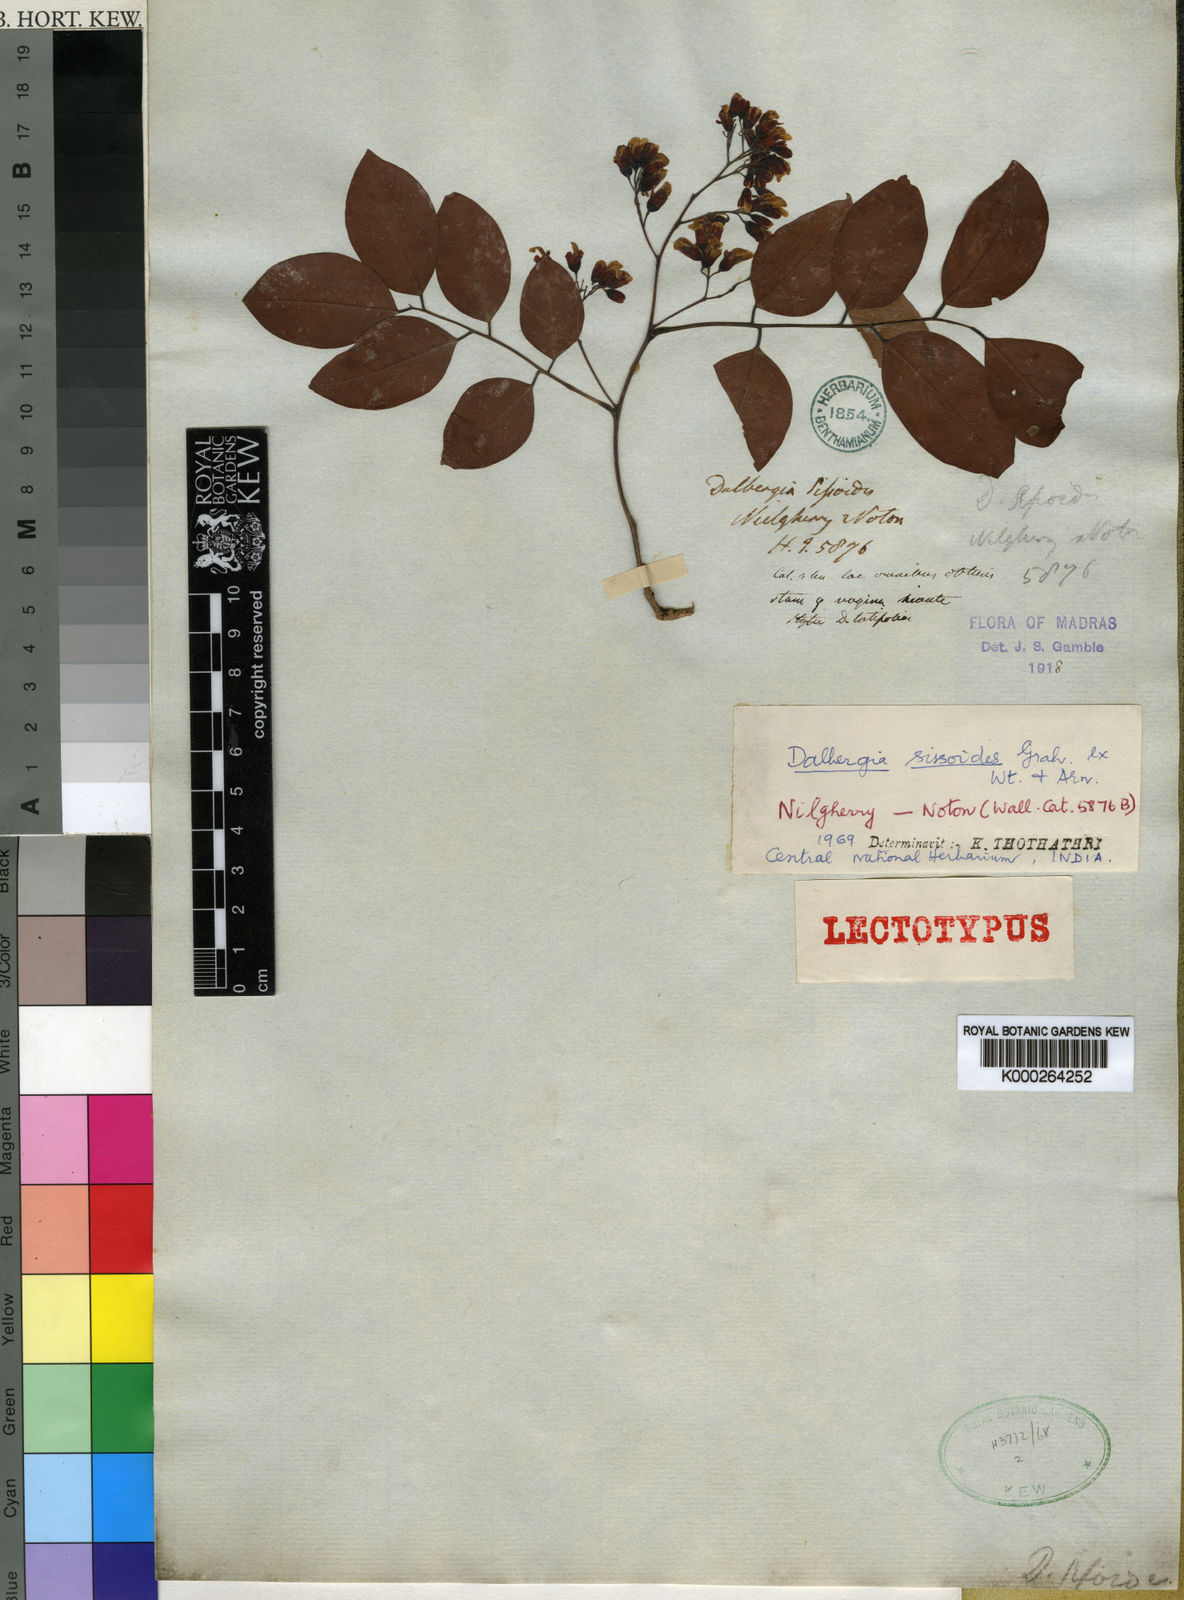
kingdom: Plantae
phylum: Tracheophyta
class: Magnoliopsida
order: Fabales
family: Fabaceae
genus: Dalbergia
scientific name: Dalbergia sissoides
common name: Malabar blackwood
